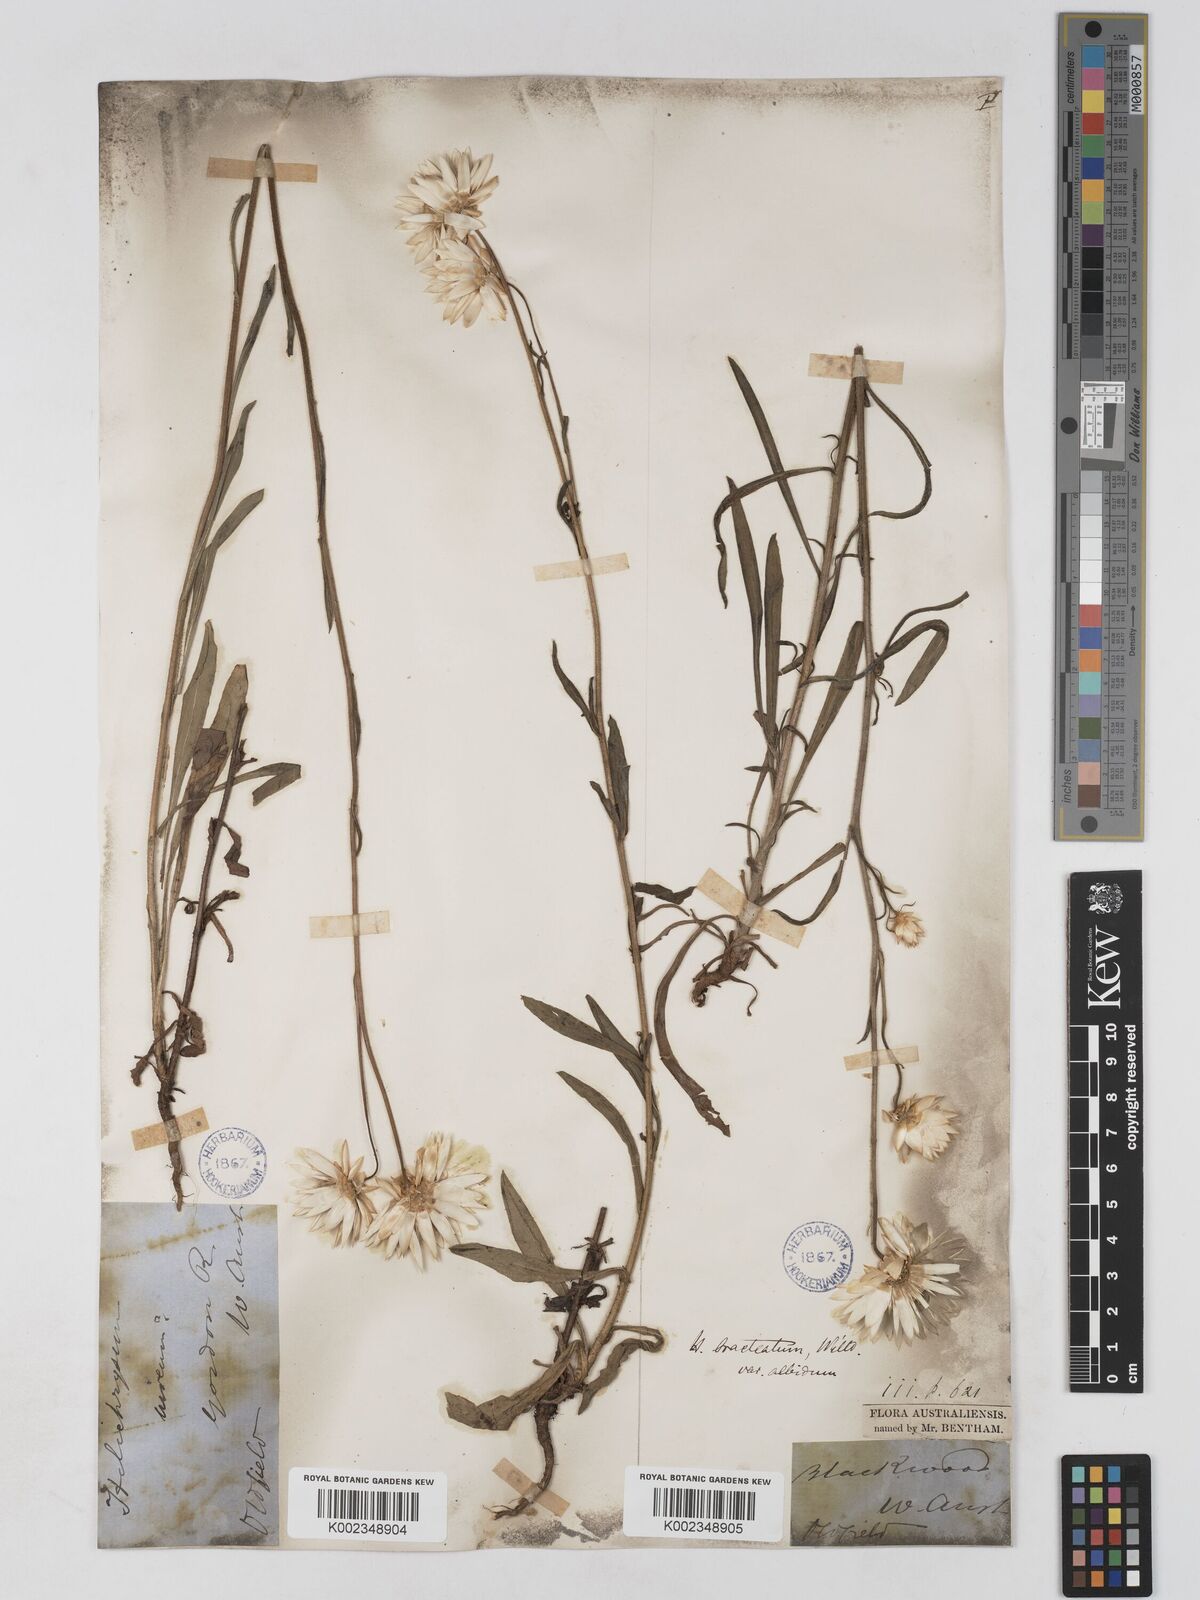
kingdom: Plantae
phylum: Tracheophyta
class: Magnoliopsida
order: Asterales
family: Asteraceae
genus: Xerochrysum
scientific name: Xerochrysum bracteatum
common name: Bracted strawflower
